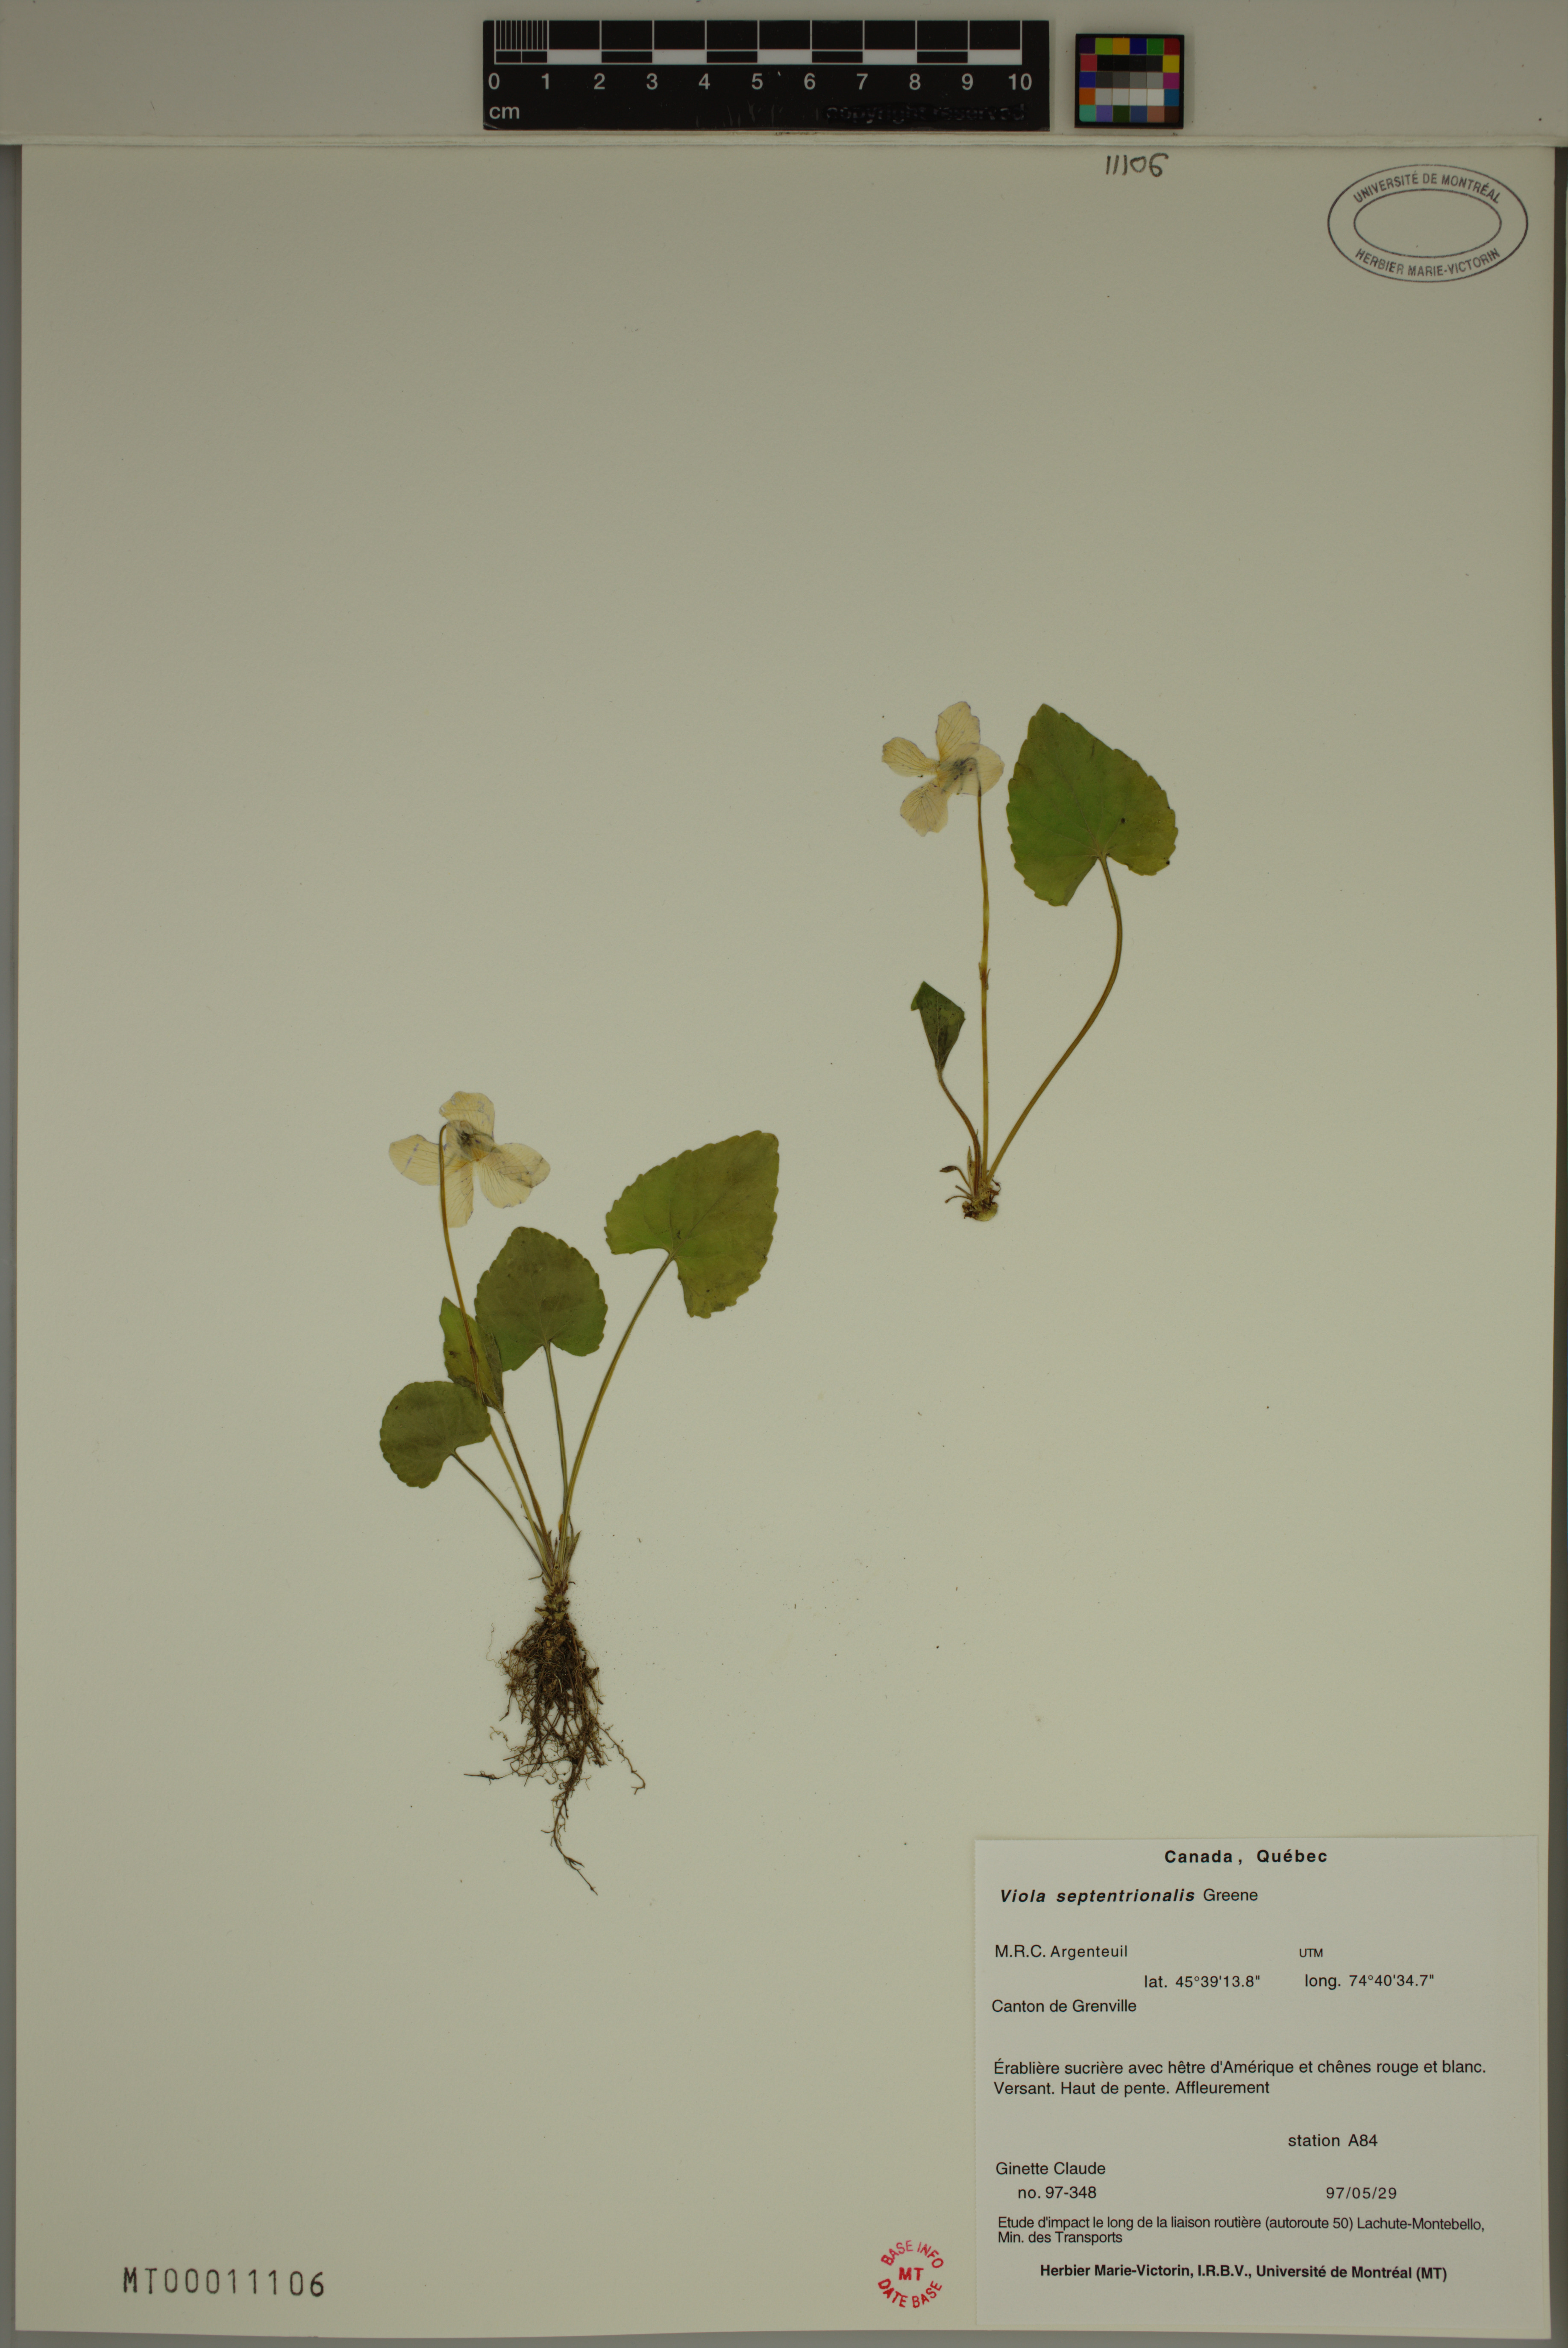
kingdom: Plantae
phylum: Tracheophyta
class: Magnoliopsida
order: Malpighiales
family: Violaceae
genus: Viola
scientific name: Viola sororia
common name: Dooryard violet
